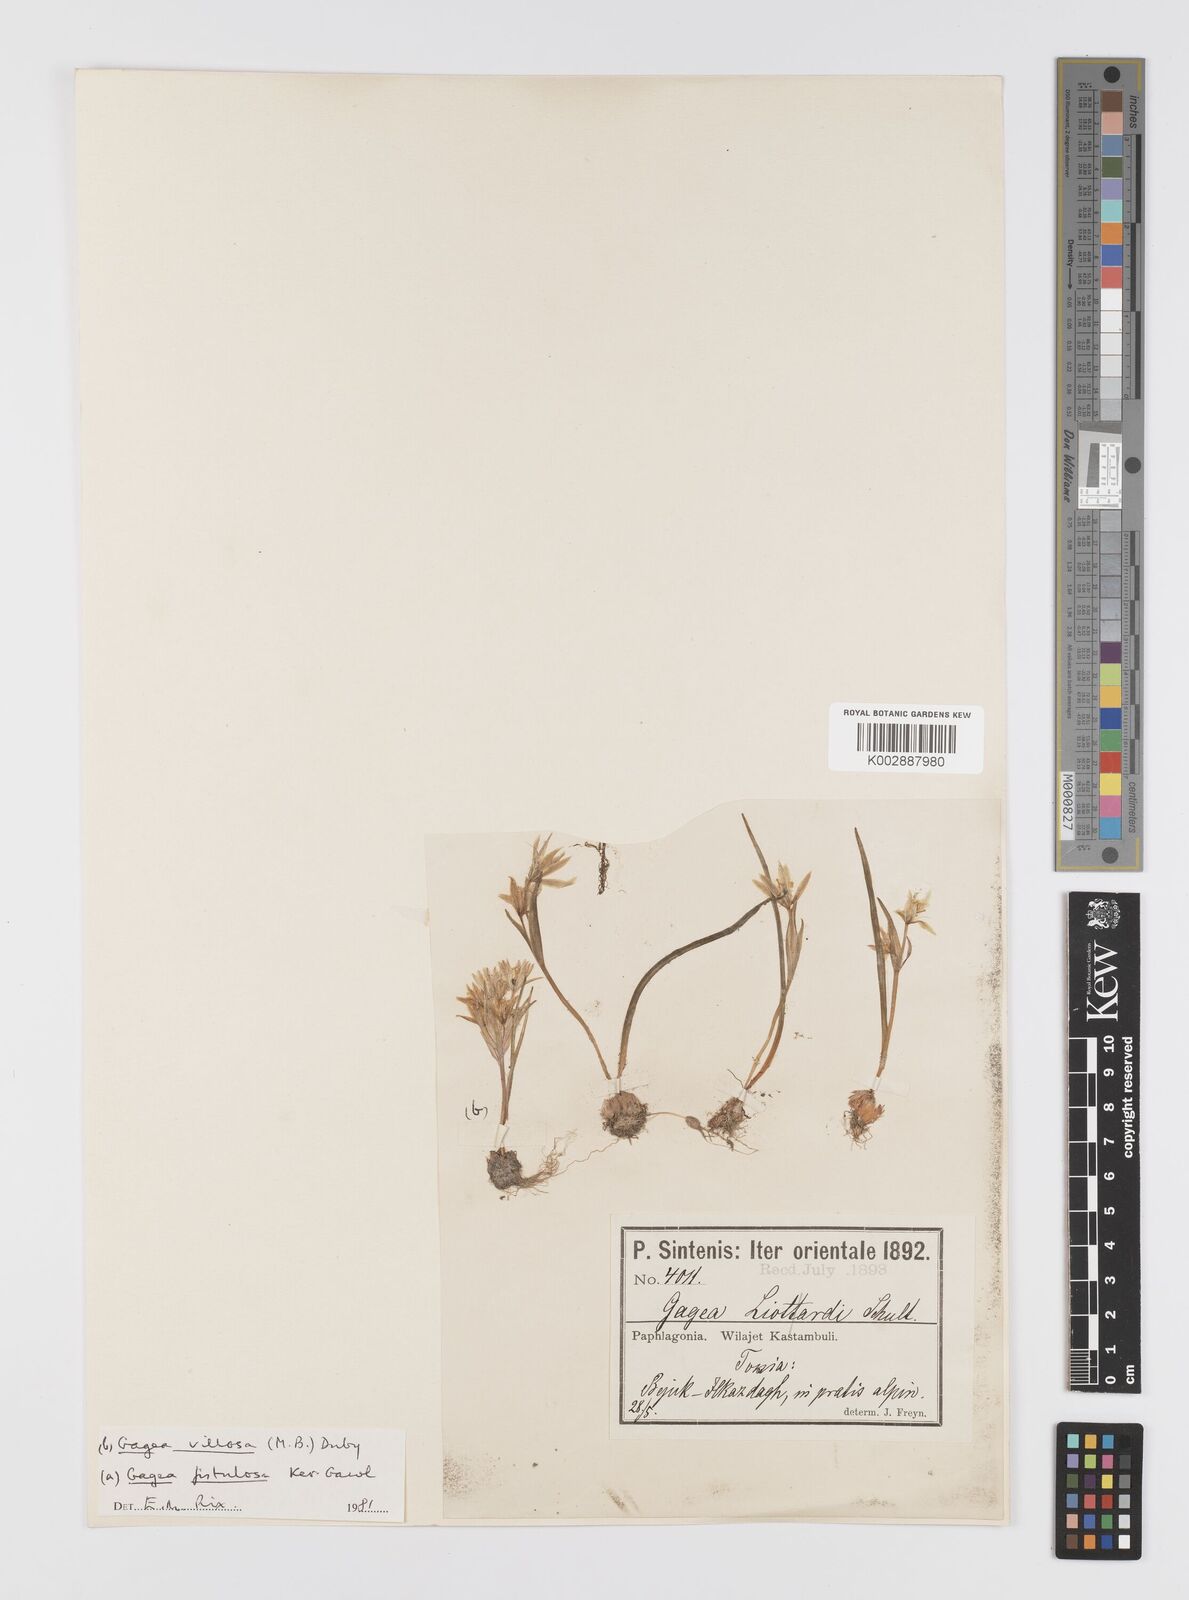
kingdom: Plantae
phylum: Tracheophyta
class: Liliopsida
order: Liliales
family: Liliaceae
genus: Gagea
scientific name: Gagea bohemica
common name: Early star-of-bethlehem
